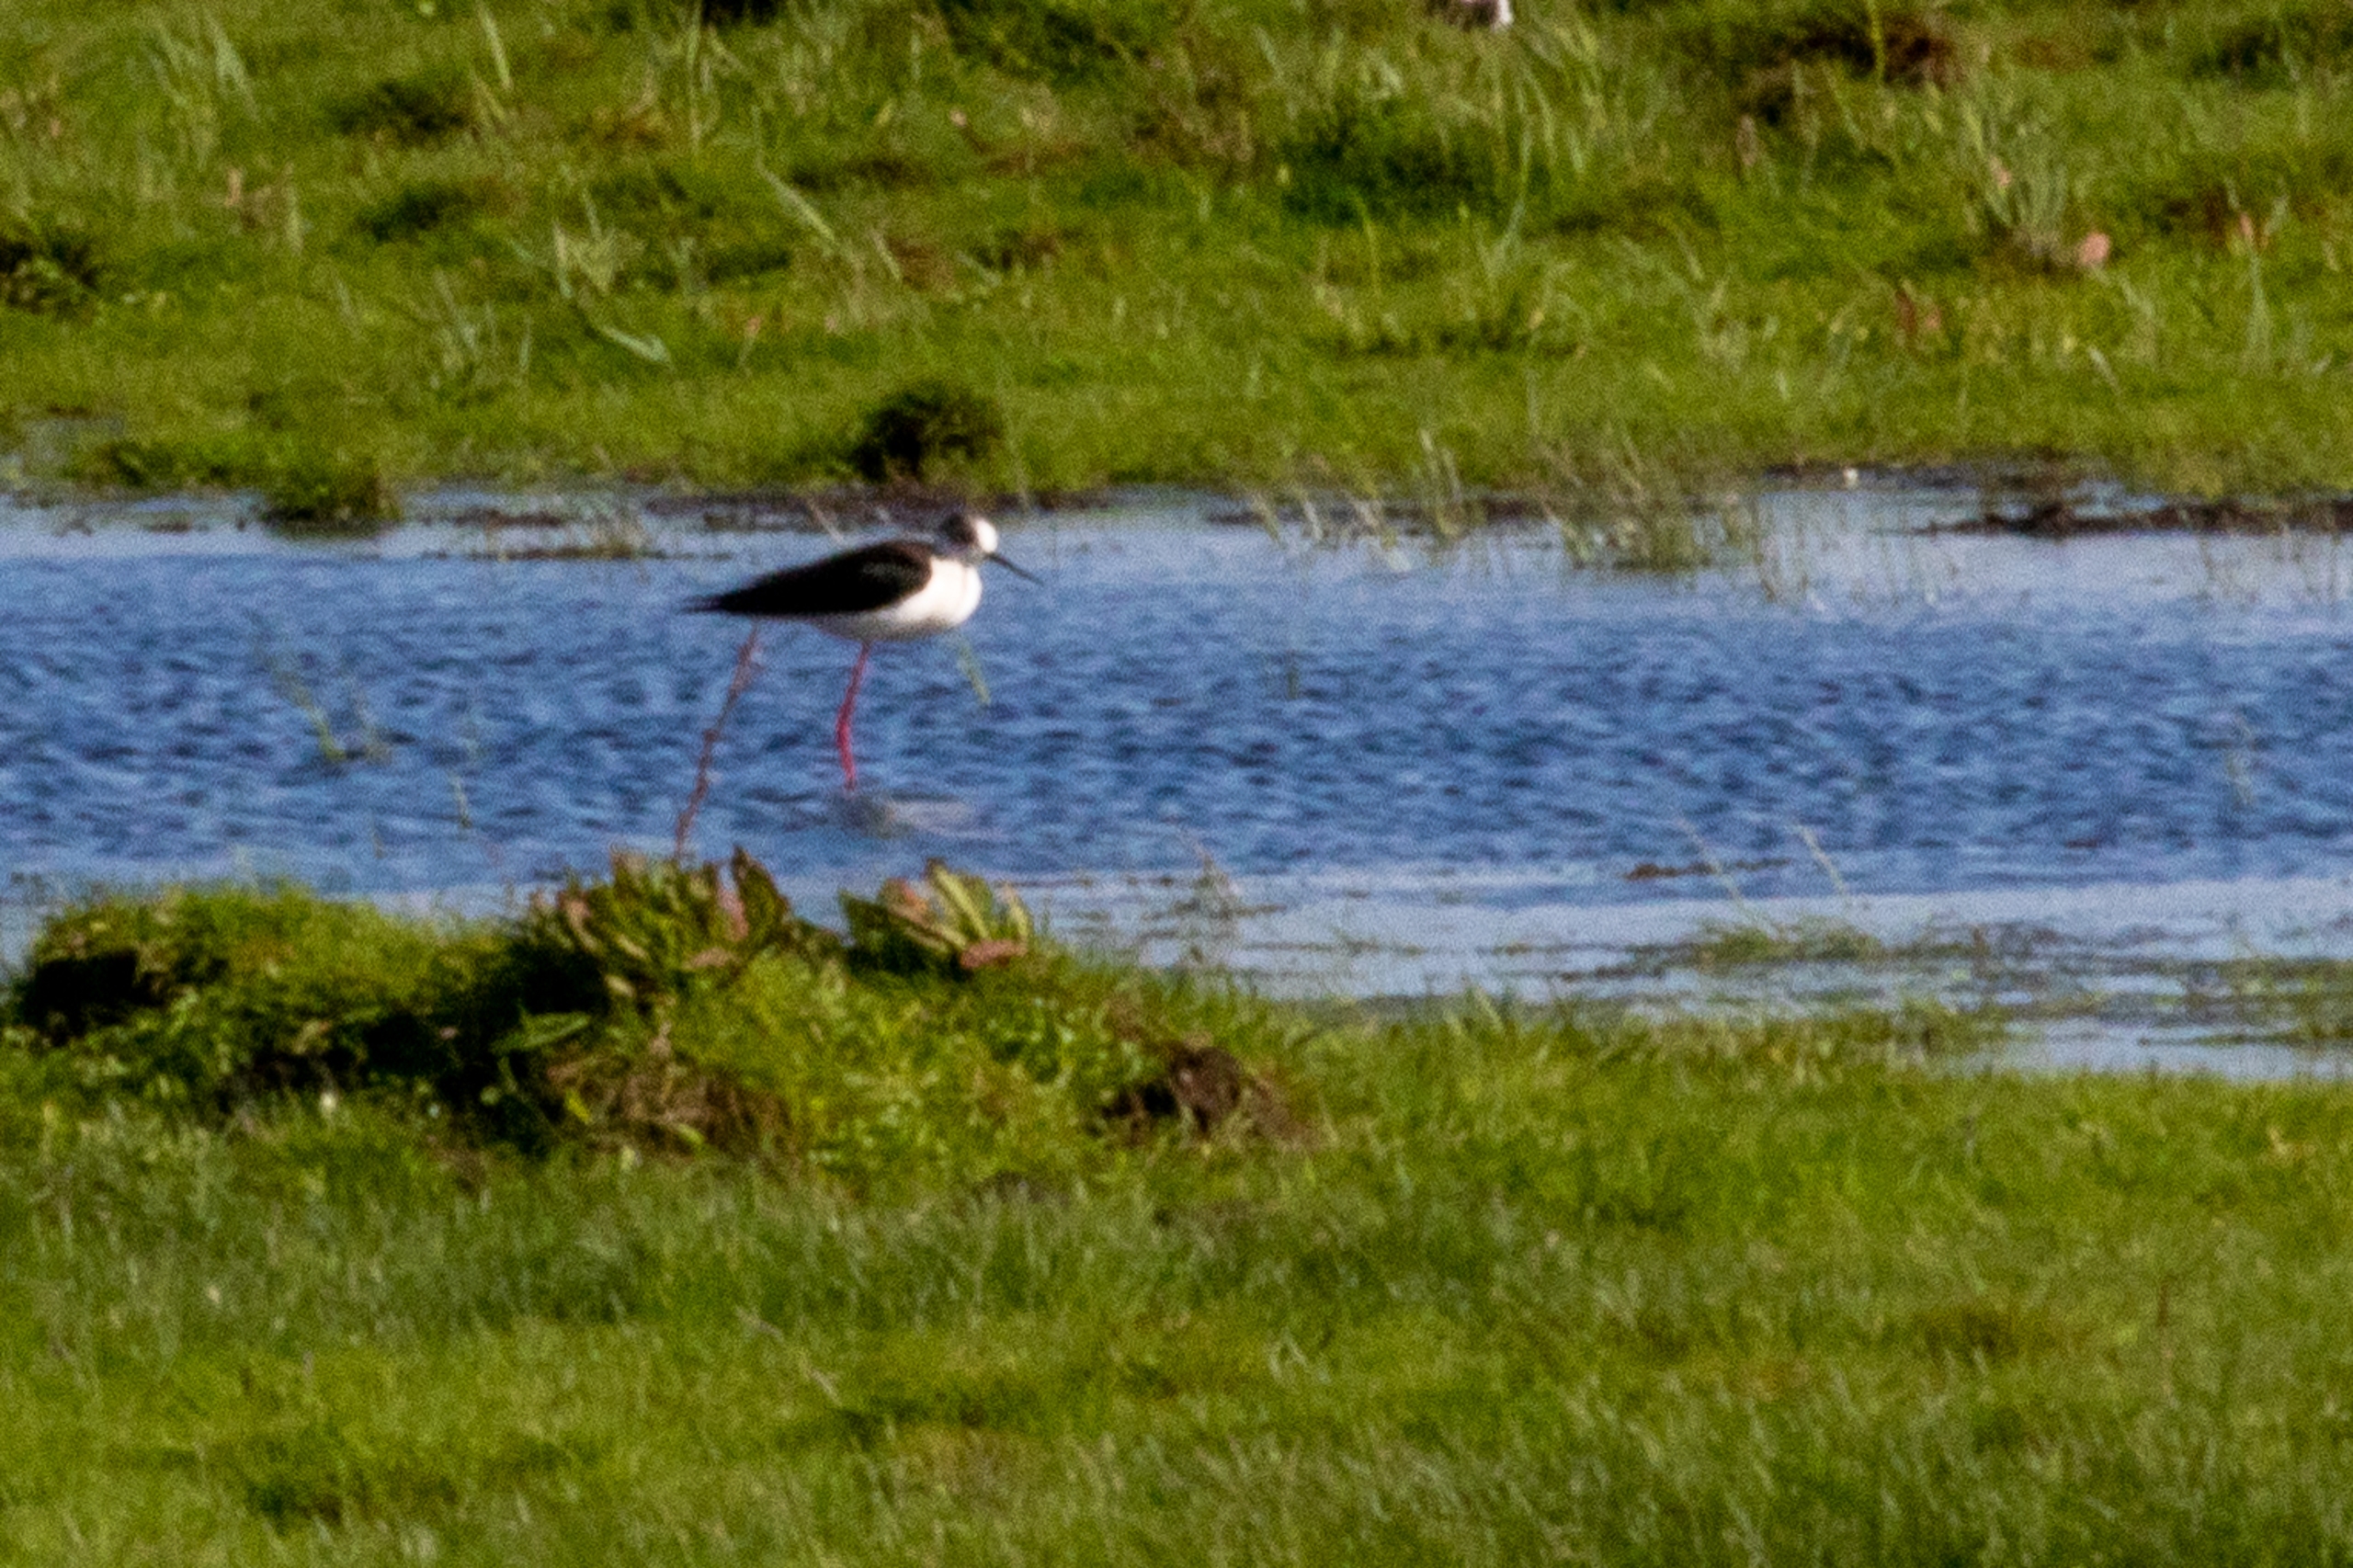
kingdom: Animalia
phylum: Chordata
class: Aves
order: Charadriiformes
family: Recurvirostridae
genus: Himantopus
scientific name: Himantopus himantopus
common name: Stylteløber
